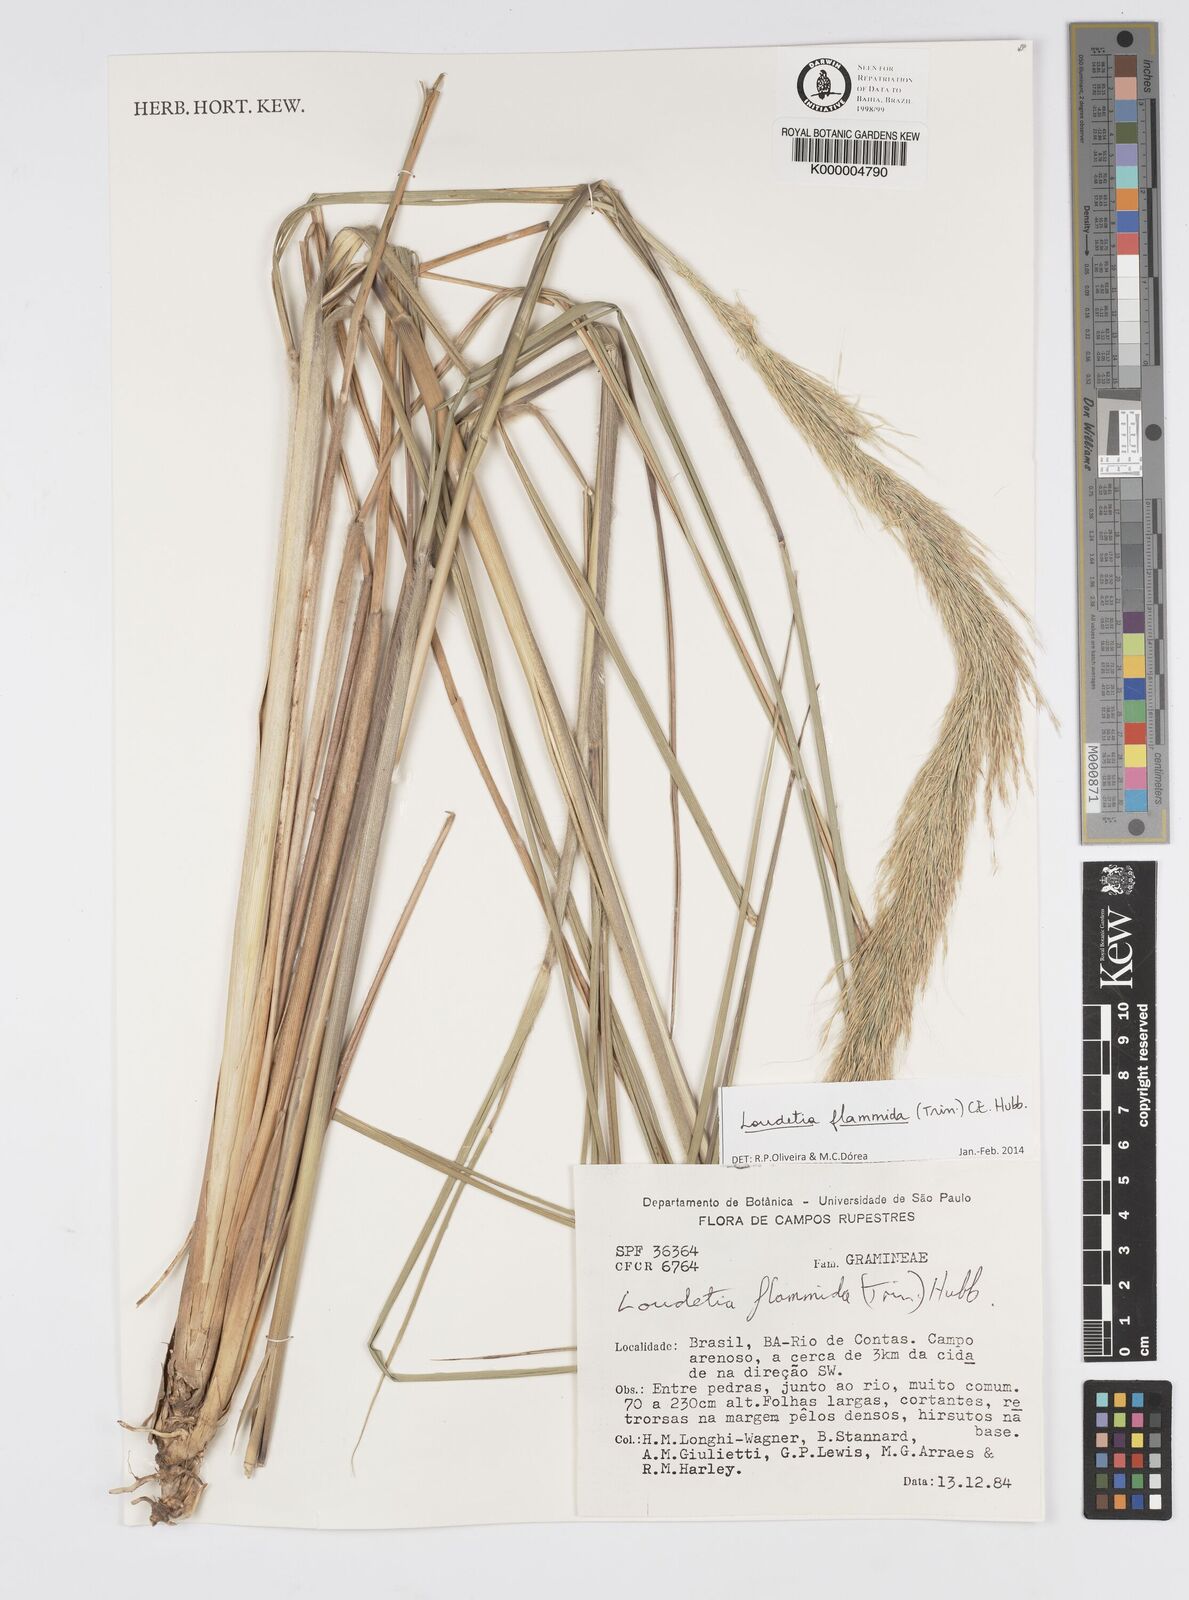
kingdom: Plantae
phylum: Tracheophyta
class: Liliopsida
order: Poales
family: Poaceae
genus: Loudetia
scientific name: Loudetia flammida
